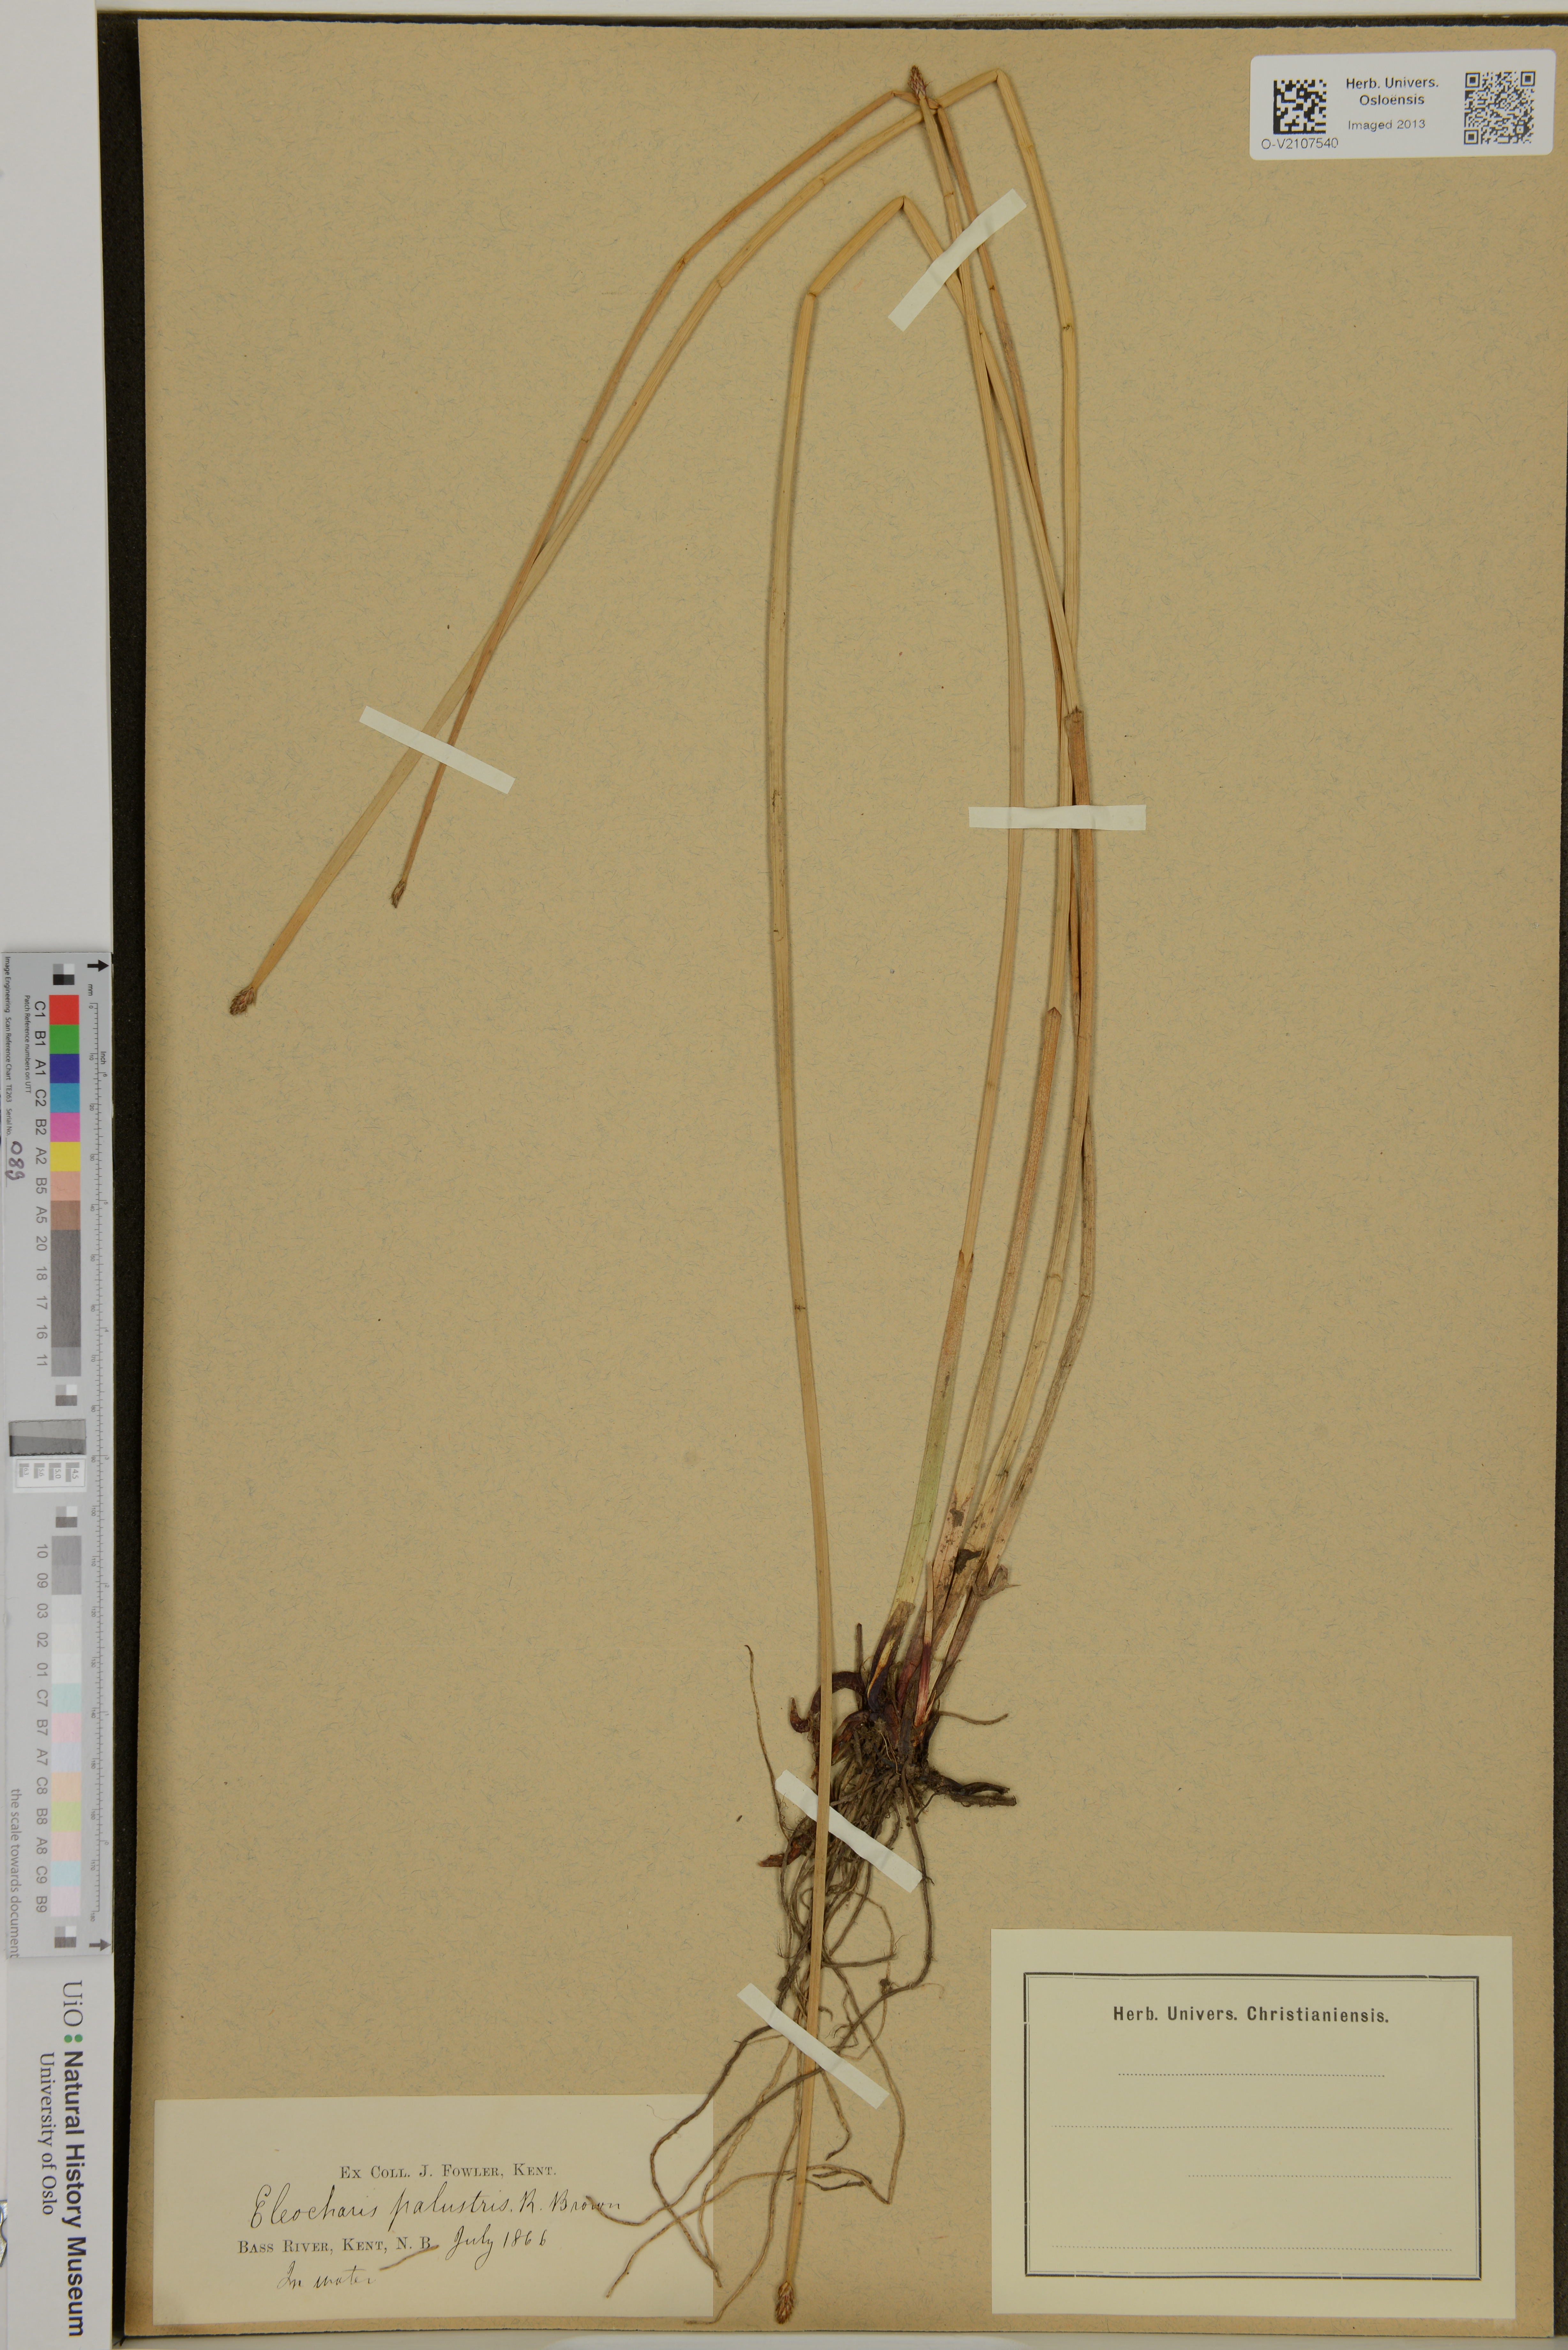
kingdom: Plantae
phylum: Tracheophyta
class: Liliopsida
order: Poales
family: Cyperaceae
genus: Eleocharis
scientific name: Eleocharis palustris
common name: Common spike-rush
